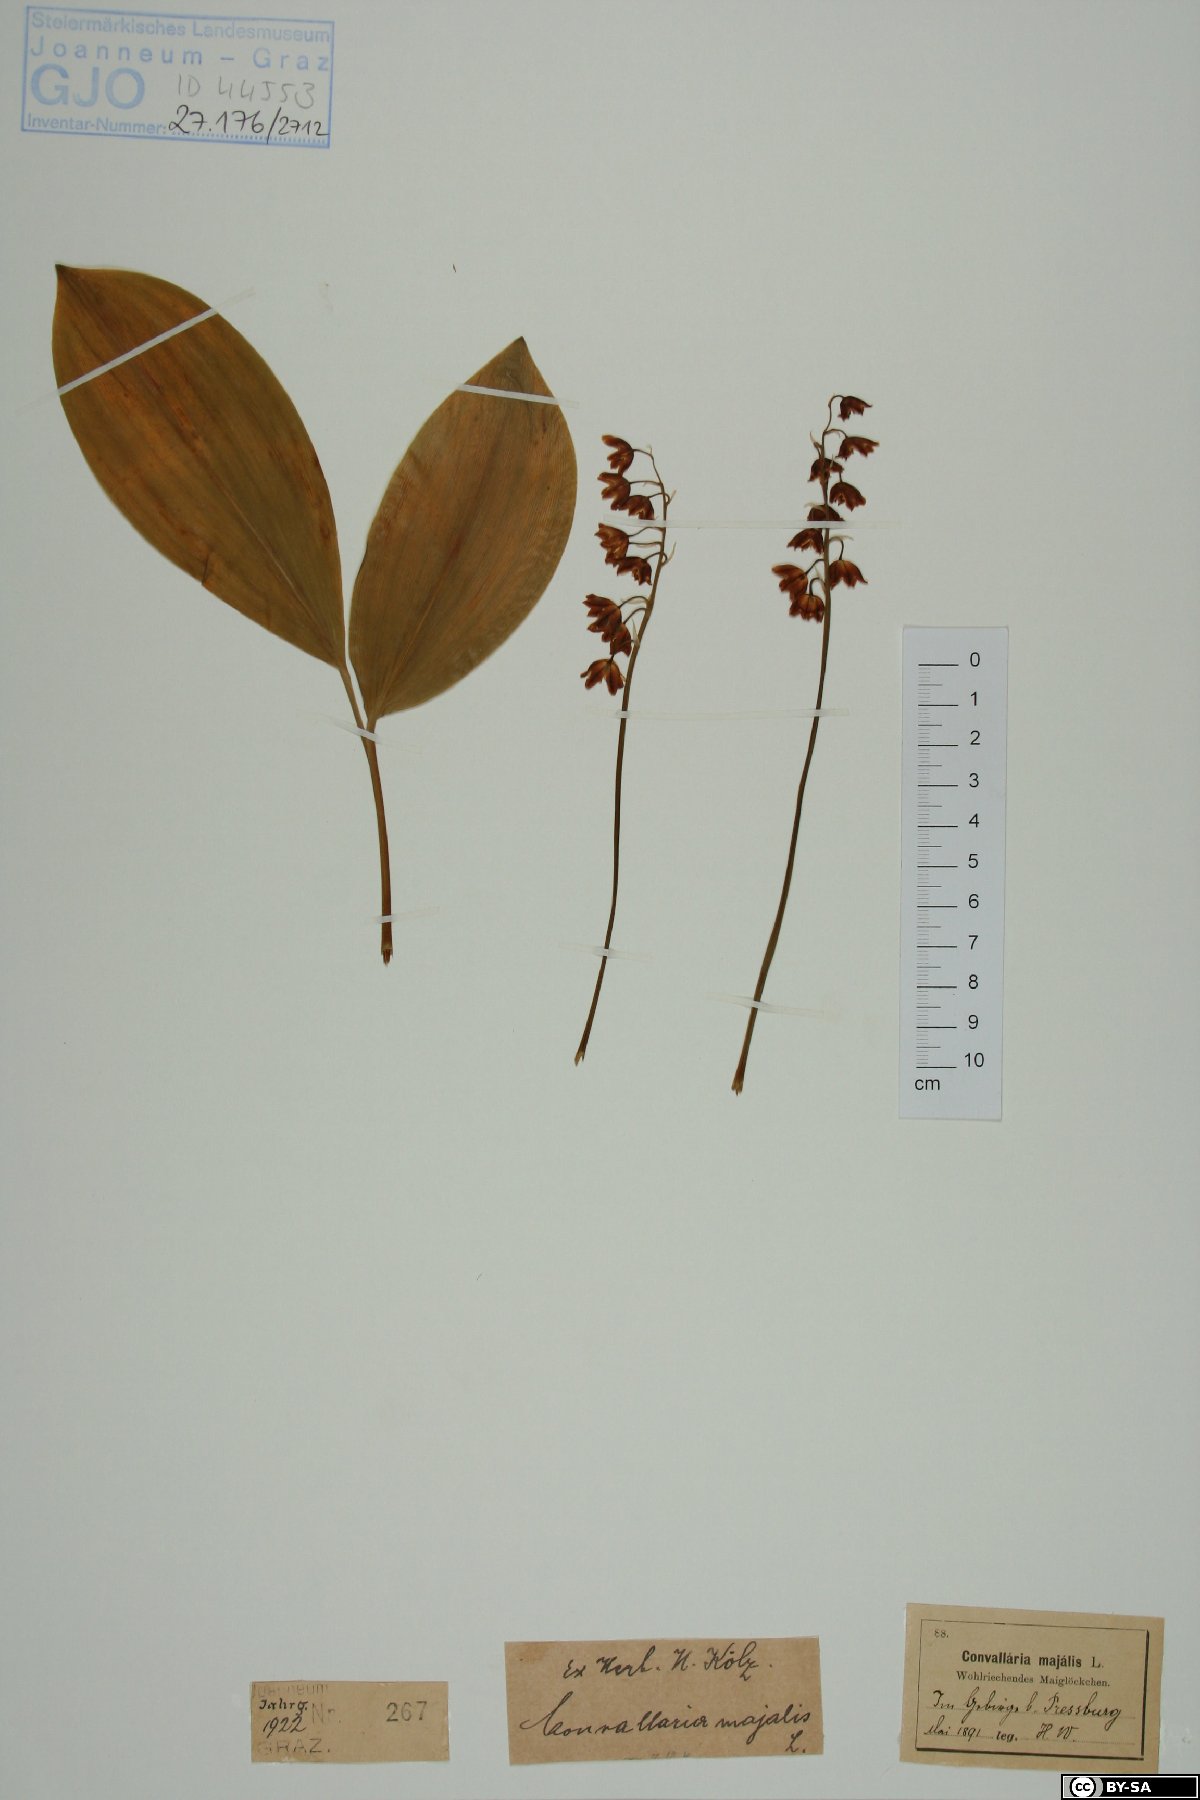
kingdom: Plantae
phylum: Tracheophyta
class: Liliopsida
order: Asparagales
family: Asparagaceae
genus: Convallaria
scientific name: Convallaria majalis
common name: Lily-of-the-valley
